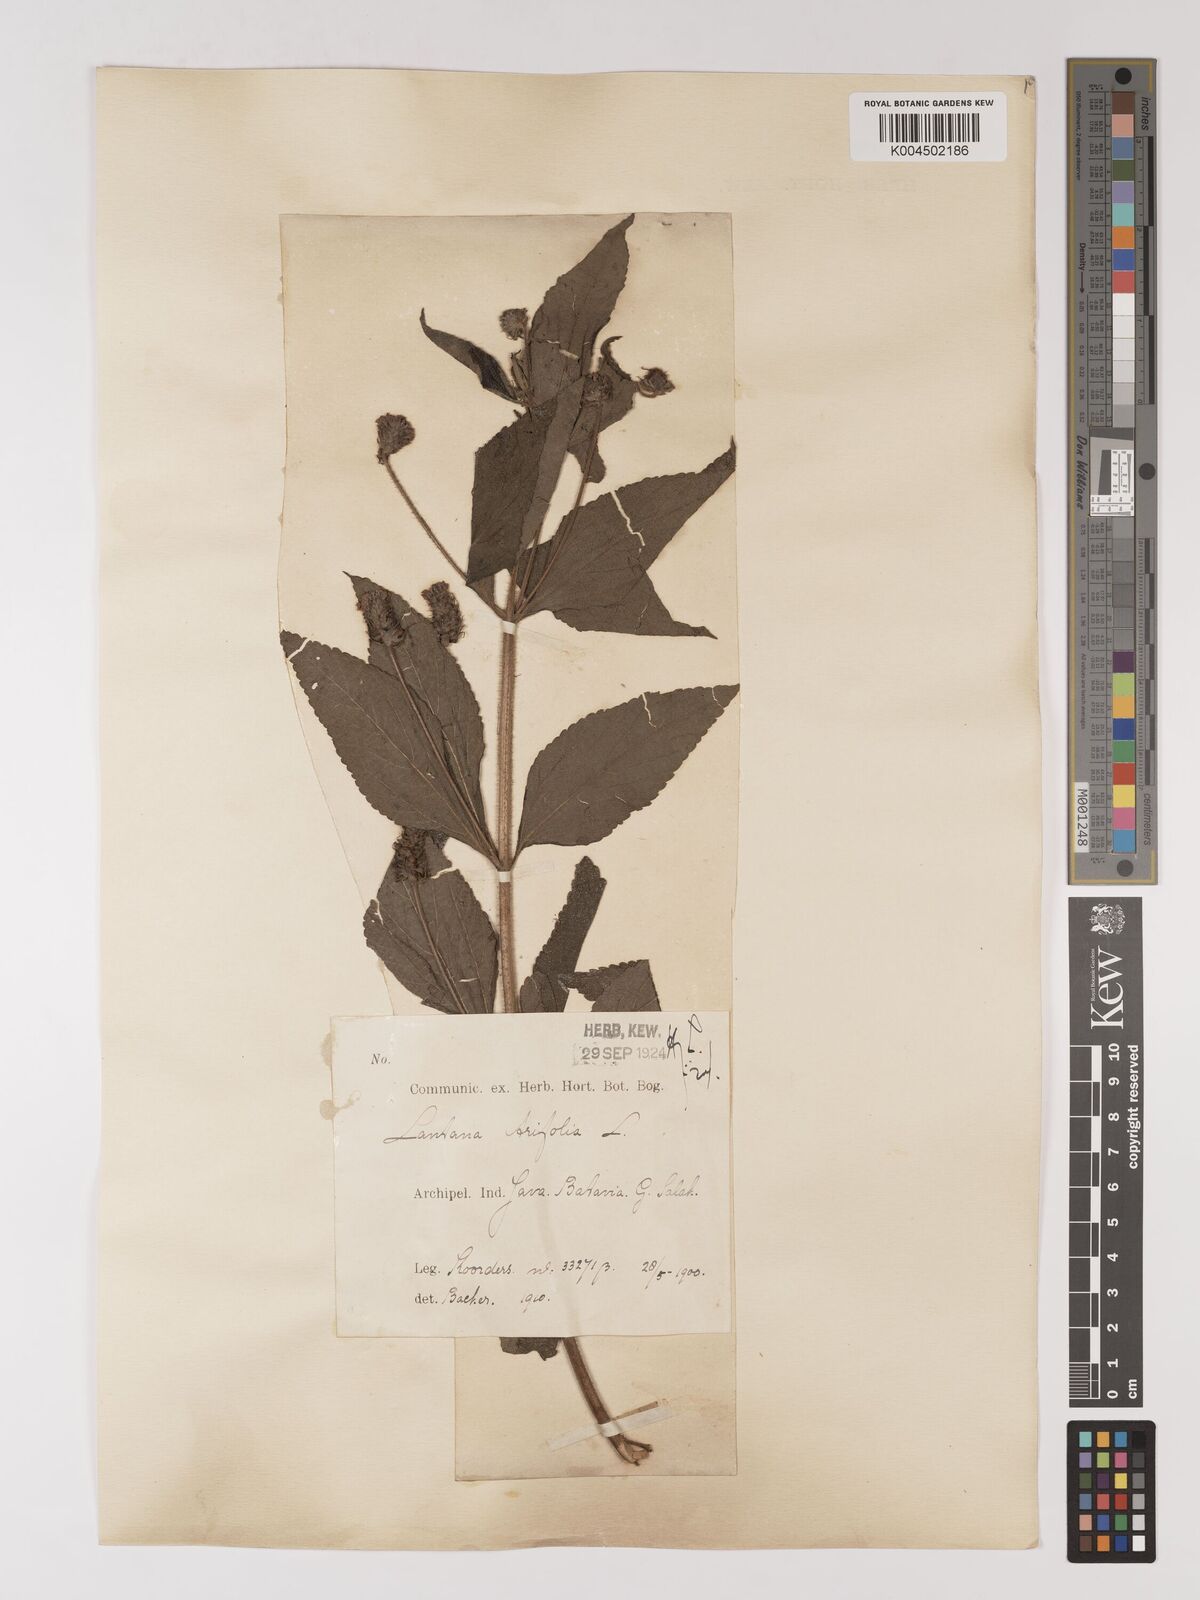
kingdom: Plantae
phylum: Tracheophyta
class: Magnoliopsida
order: Lamiales
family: Verbenaceae
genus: Lantana
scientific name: Lantana trifolia
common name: Sweet-sage
